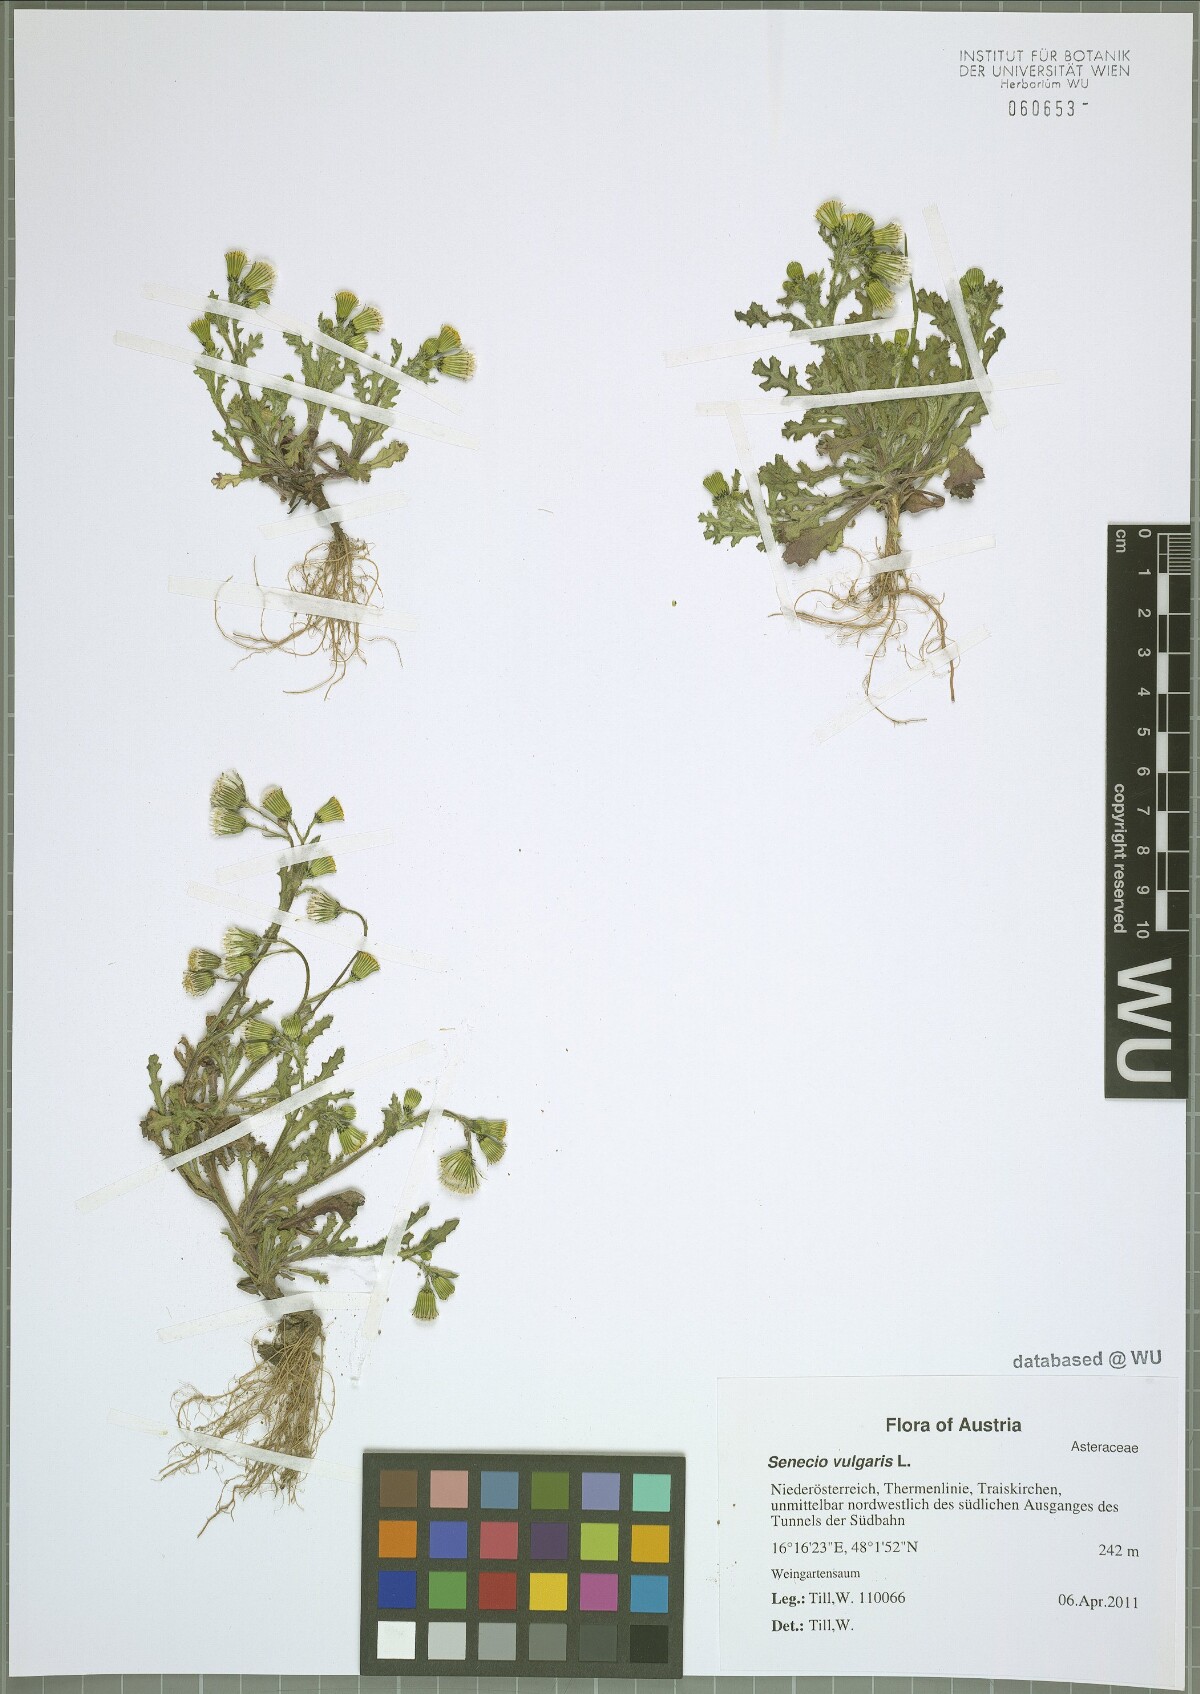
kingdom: Plantae
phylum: Tracheophyta
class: Magnoliopsida
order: Asterales
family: Asteraceae
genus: Senecio
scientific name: Senecio vulgaris
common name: Old-man-in-the-spring
